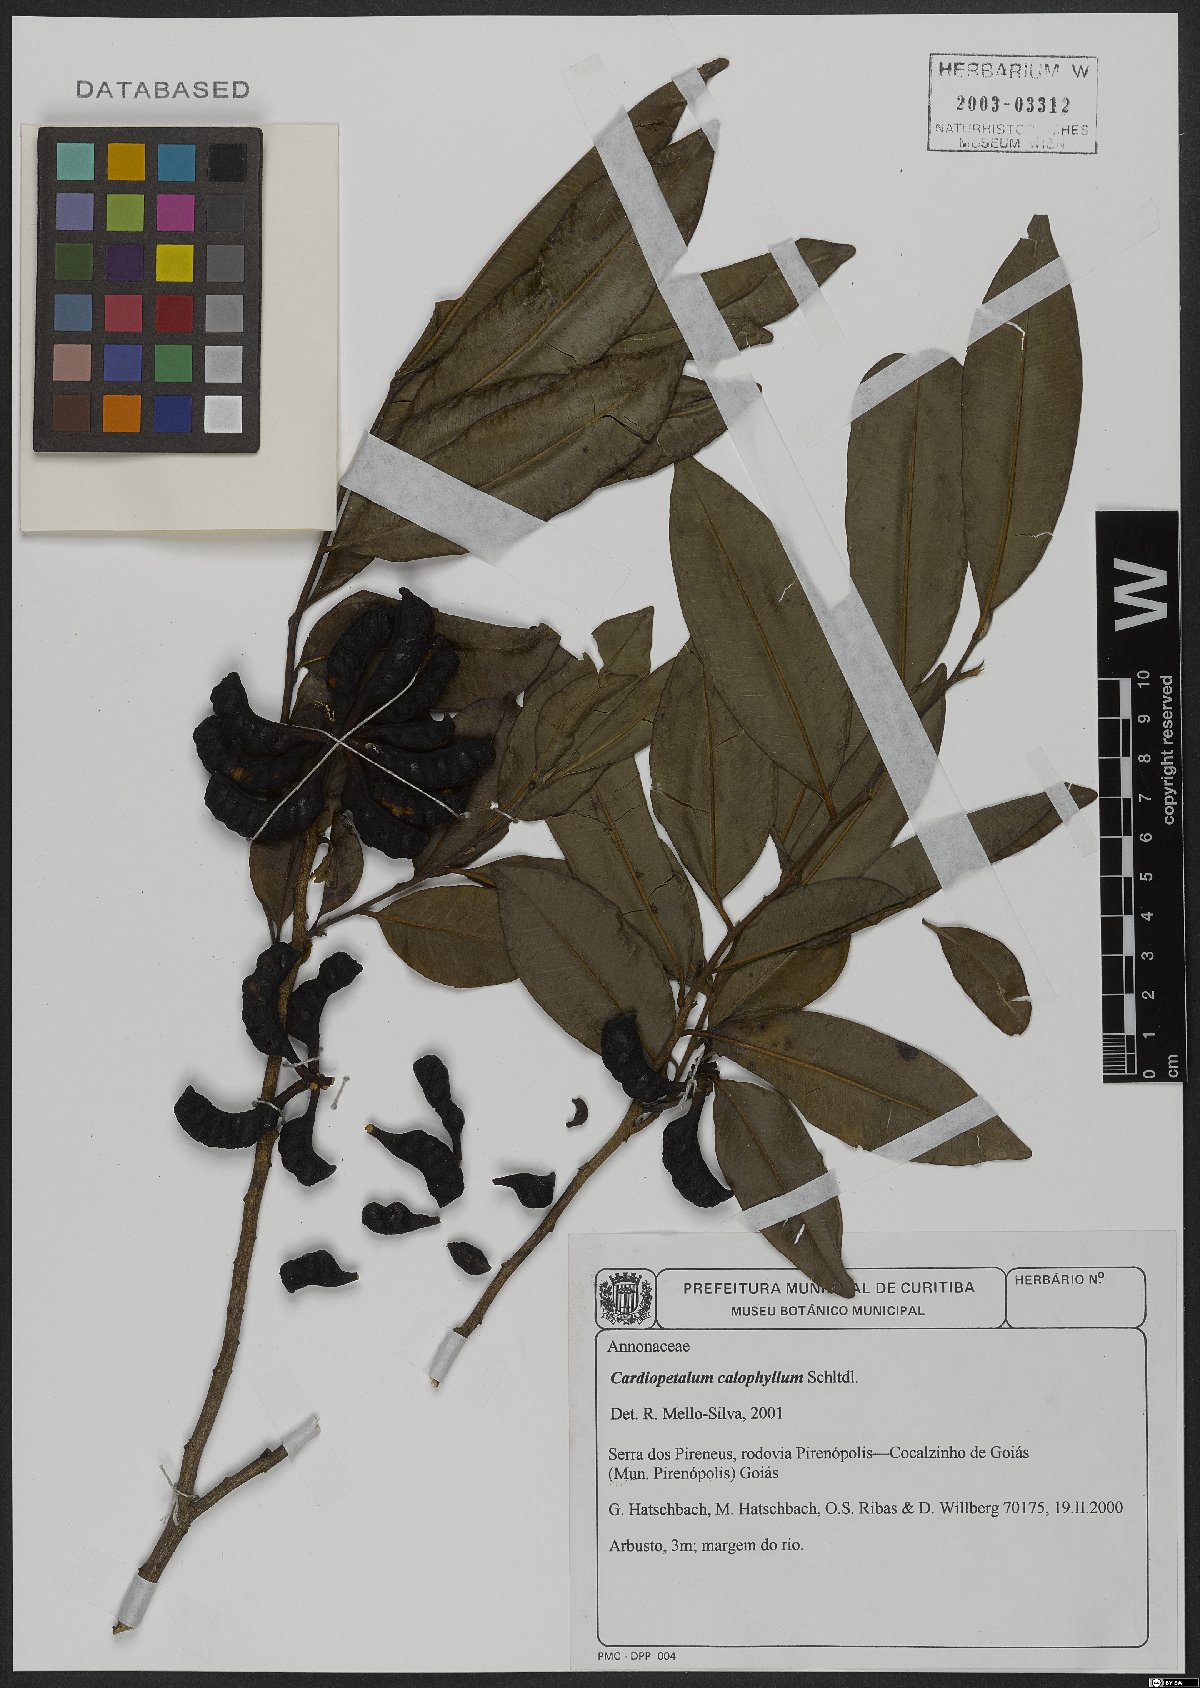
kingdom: Plantae
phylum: Tracheophyta
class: Magnoliopsida
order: Magnoliales
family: Annonaceae
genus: Cardiopetalum
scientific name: Cardiopetalum calophyllum
